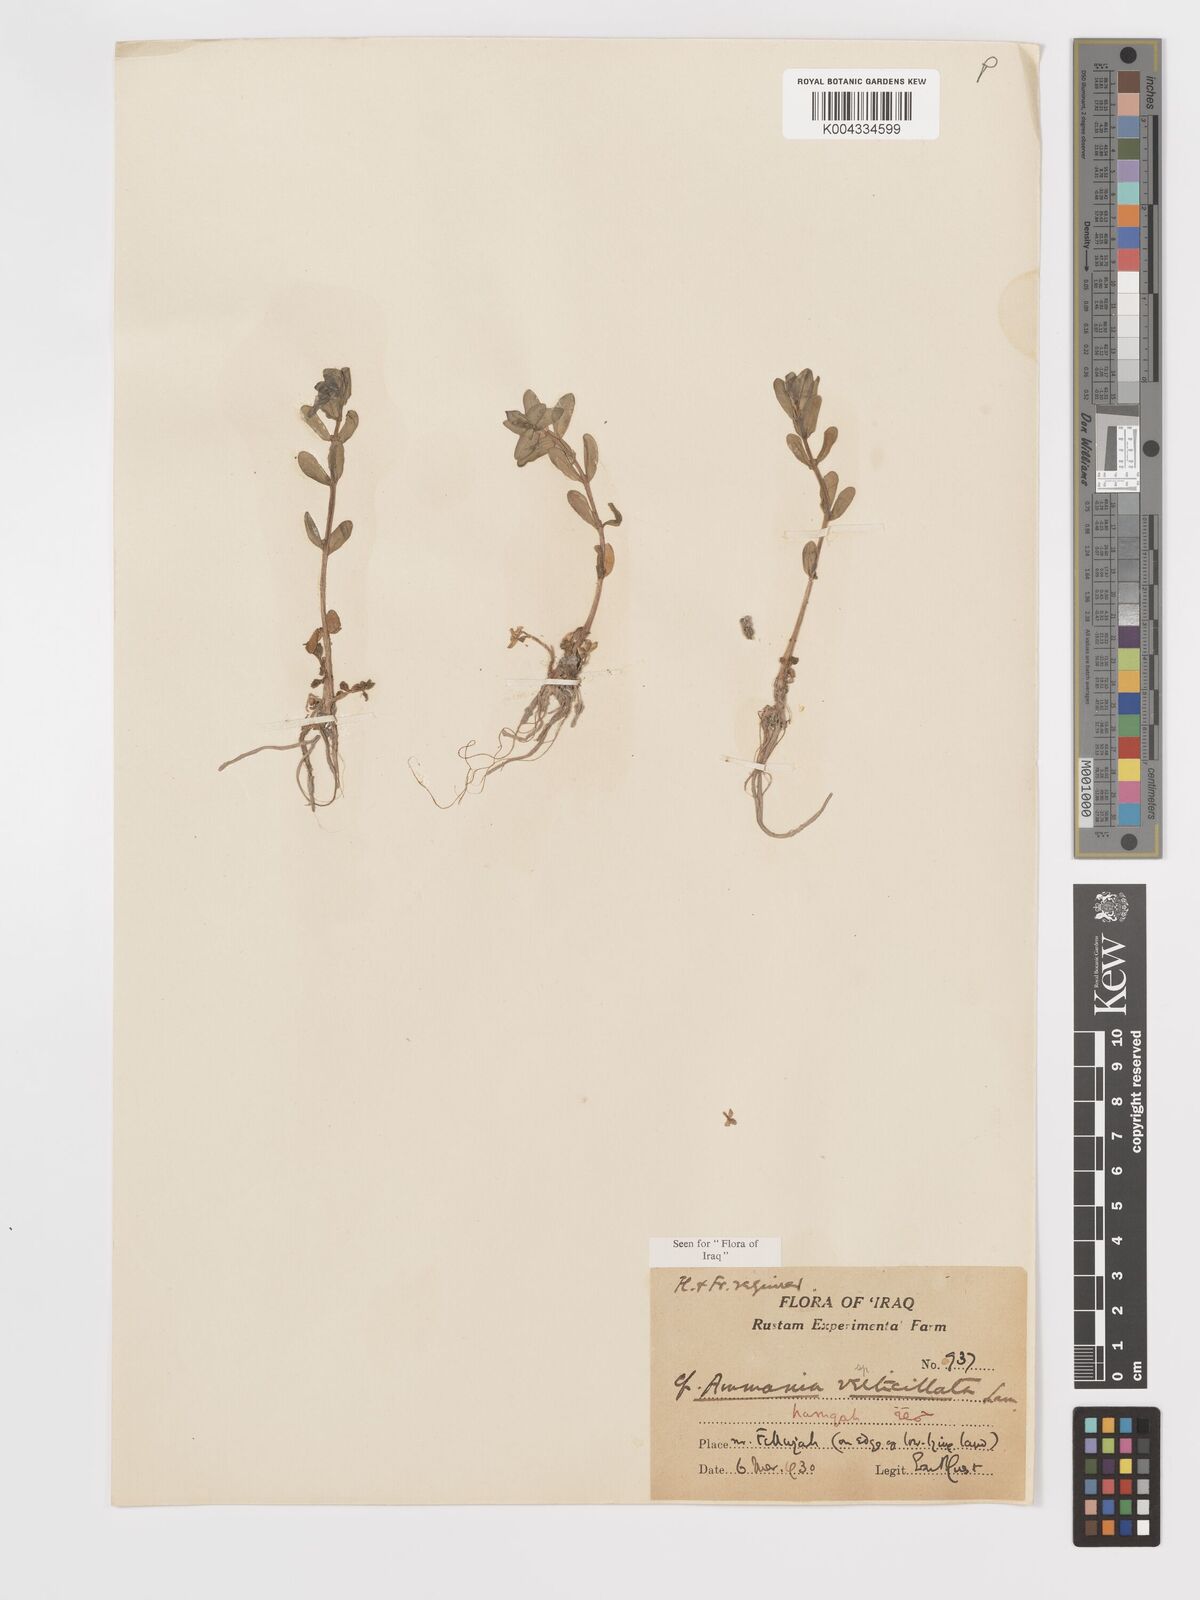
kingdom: Plantae
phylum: Tracheophyta
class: Magnoliopsida
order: Myrtales
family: Lythraceae
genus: Ammannia
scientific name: Ammannia auriculata
